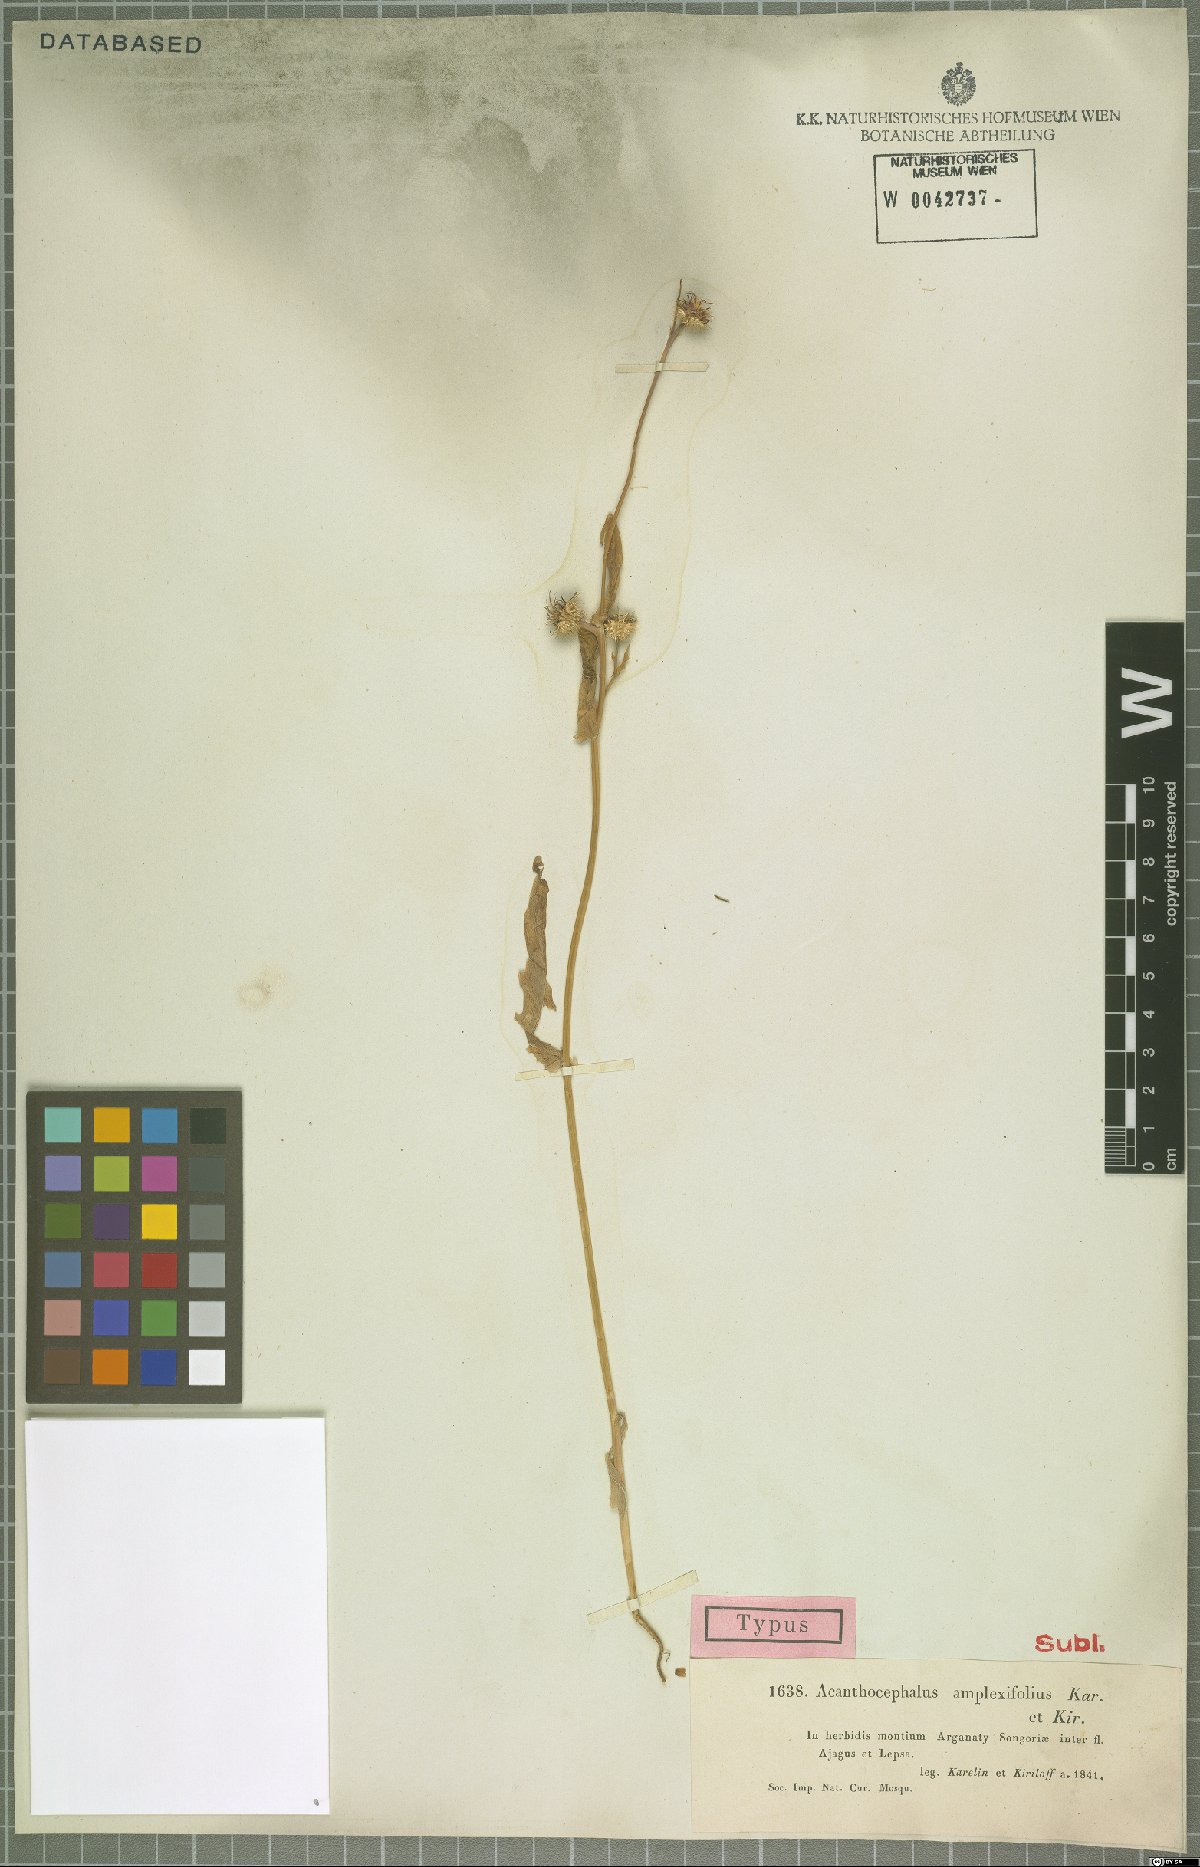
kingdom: Plantae
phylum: Tracheophyta
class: Magnoliopsida
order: Asterales
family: Asteraceae
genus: Acanthocephalus
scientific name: Acanthocephalus amplexifolius
